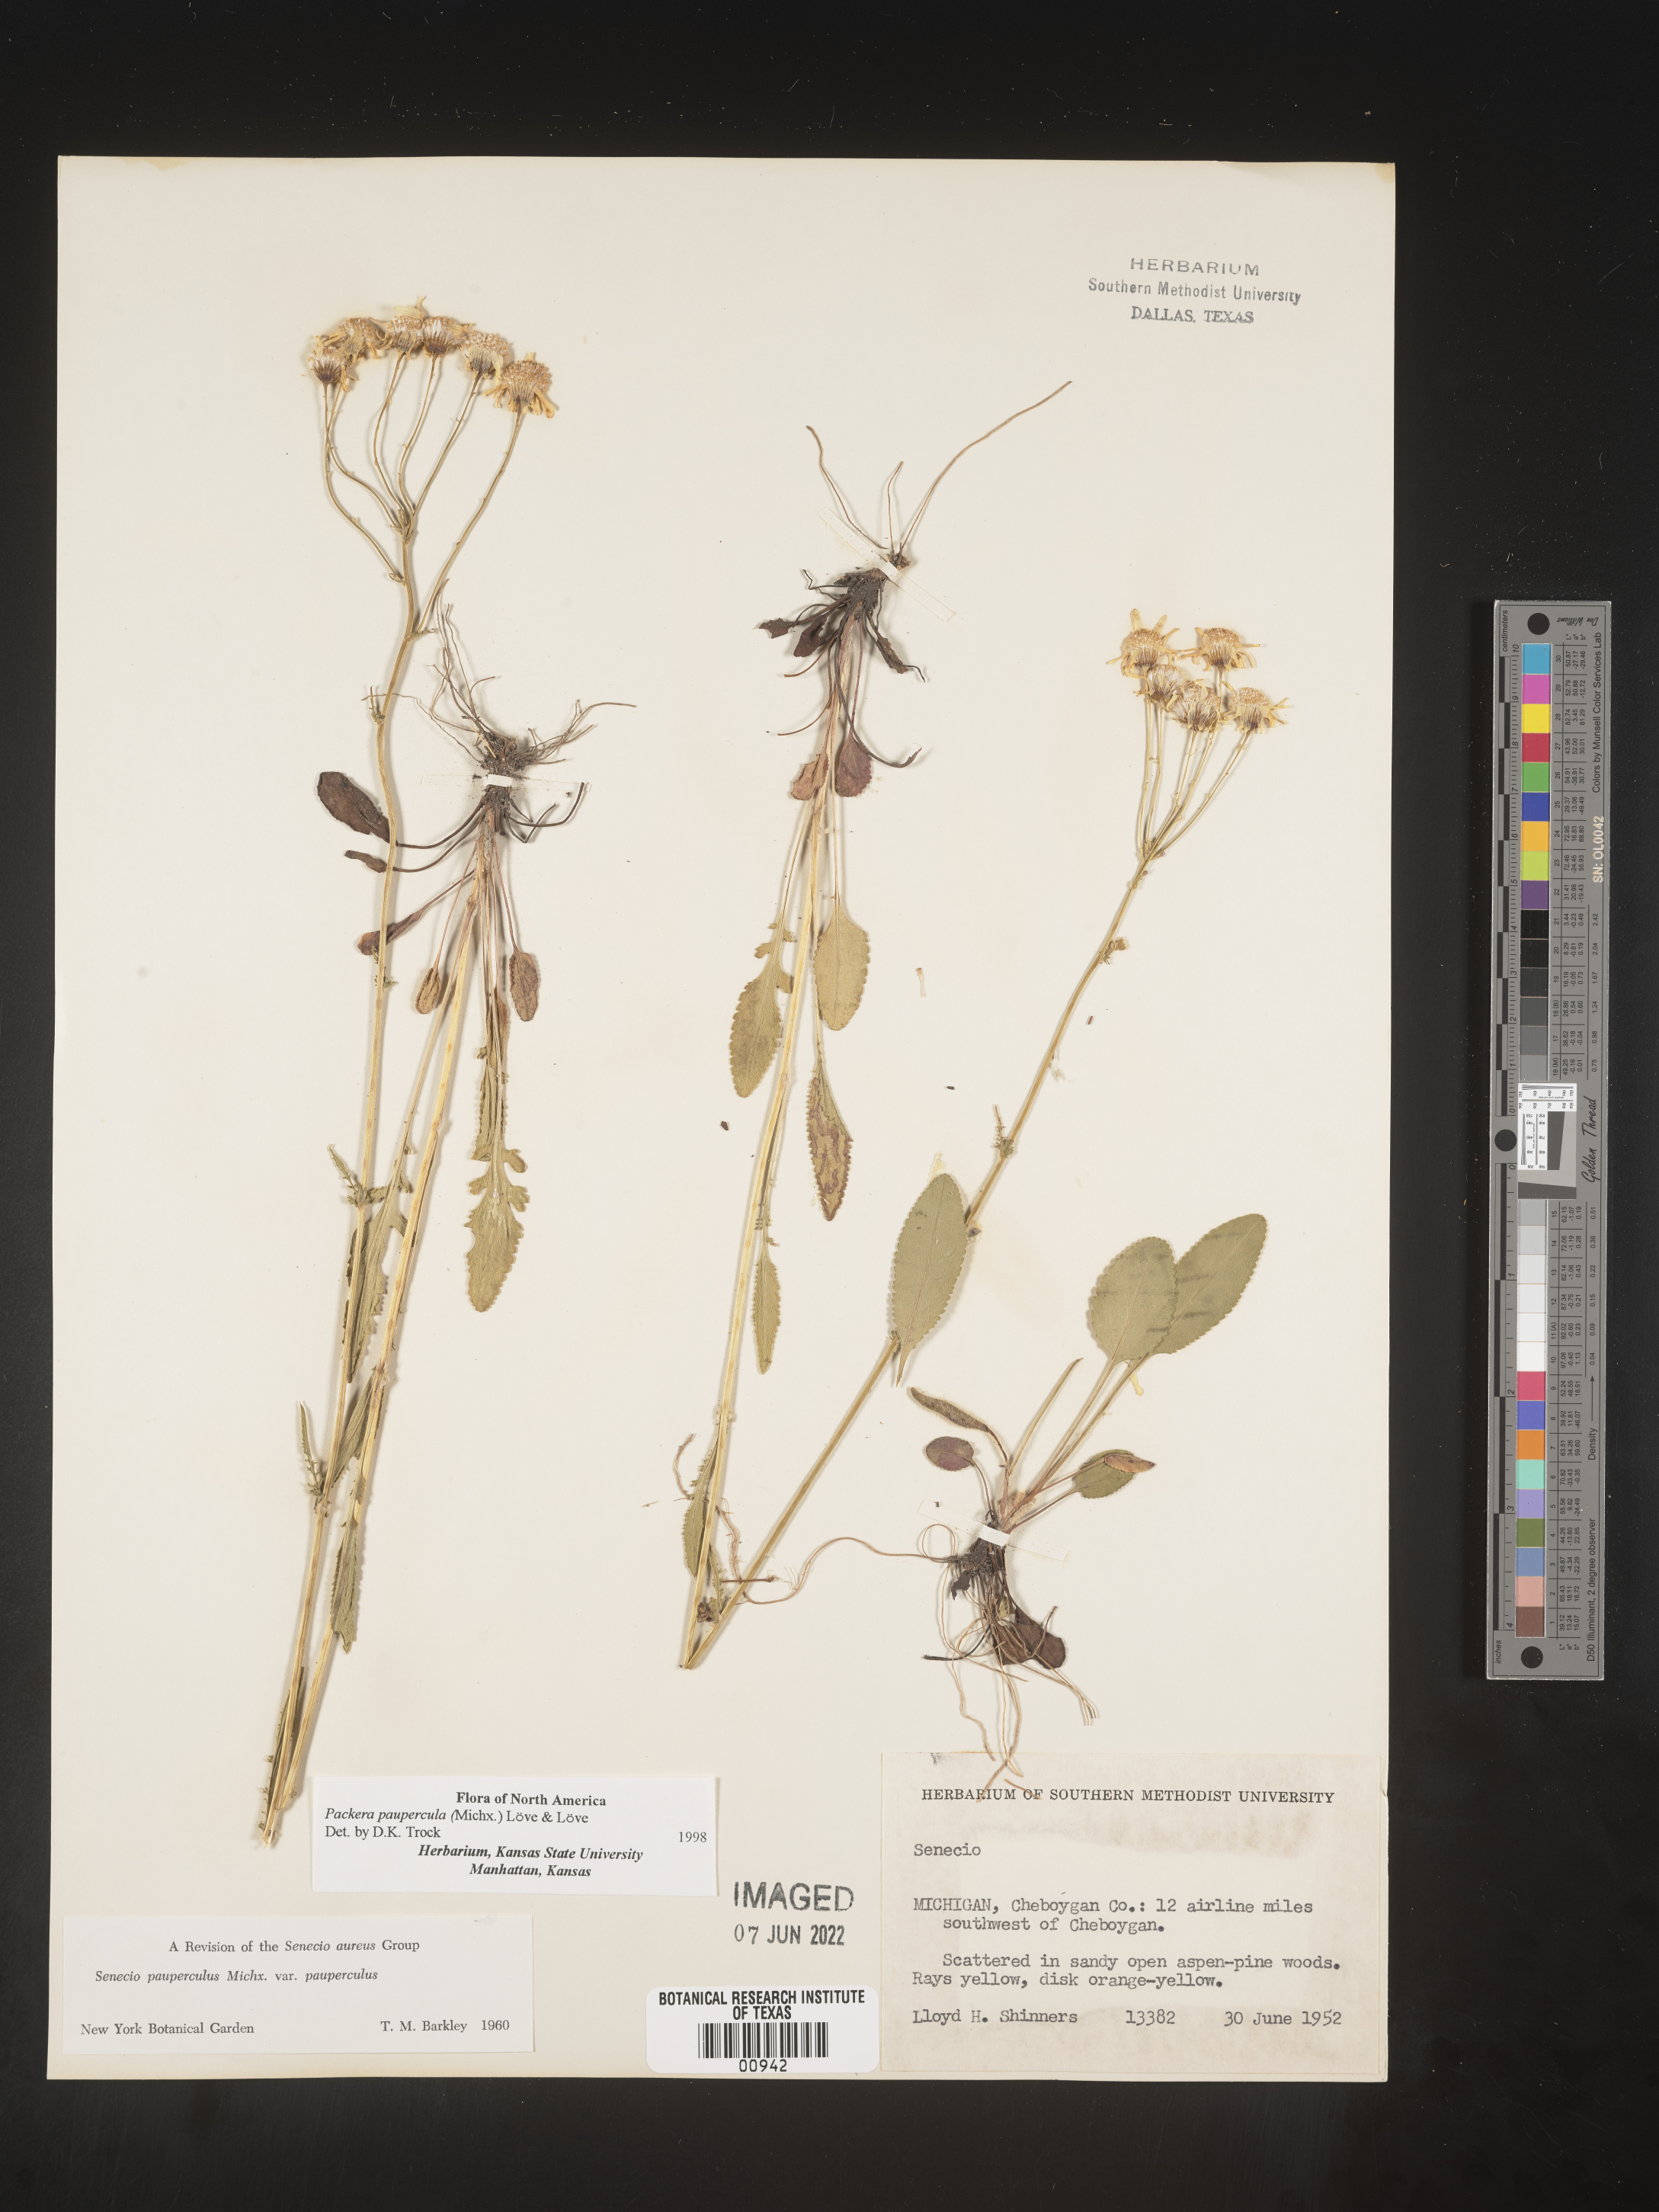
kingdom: Plantae
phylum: Tracheophyta
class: Magnoliopsida
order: Asterales
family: Asteraceae
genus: Packera
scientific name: Packera paupercula
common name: Balsam groundsel
